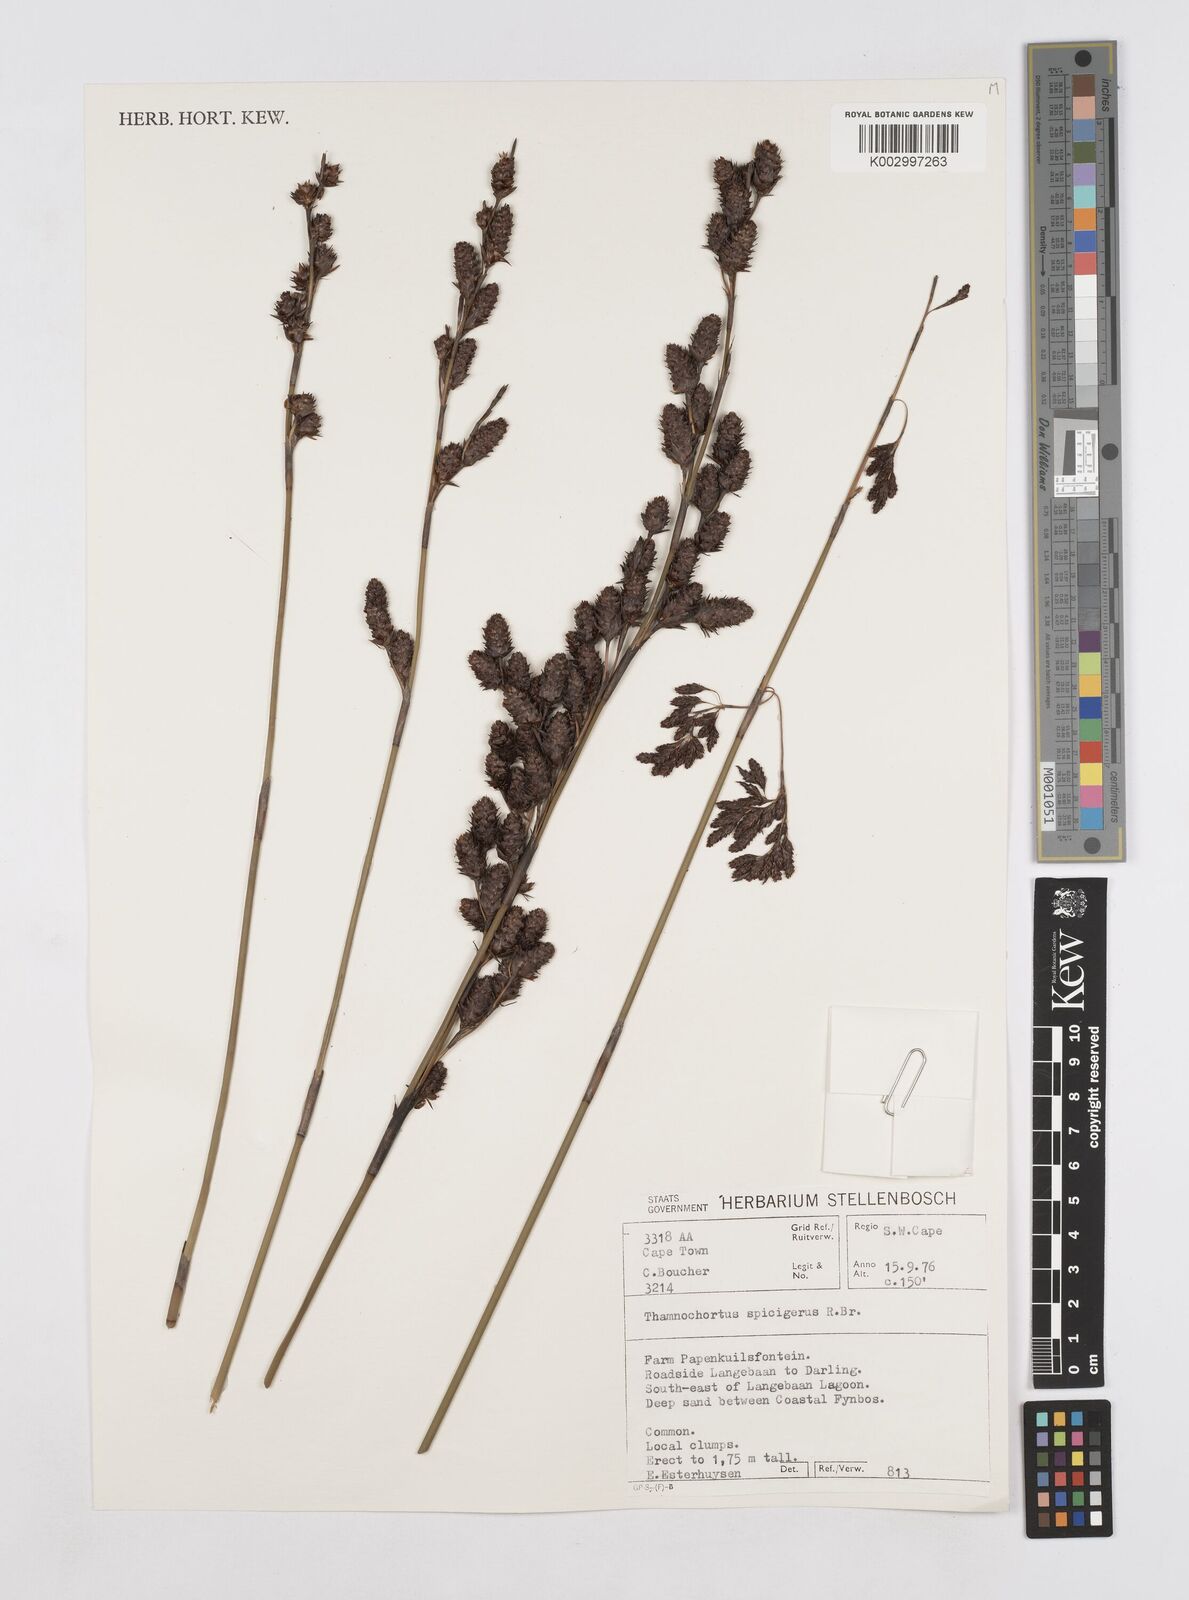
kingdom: Plantae
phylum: Tracheophyta
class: Liliopsida
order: Poales
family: Restionaceae
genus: Thamnochortus
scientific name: Thamnochortus spicigerus
